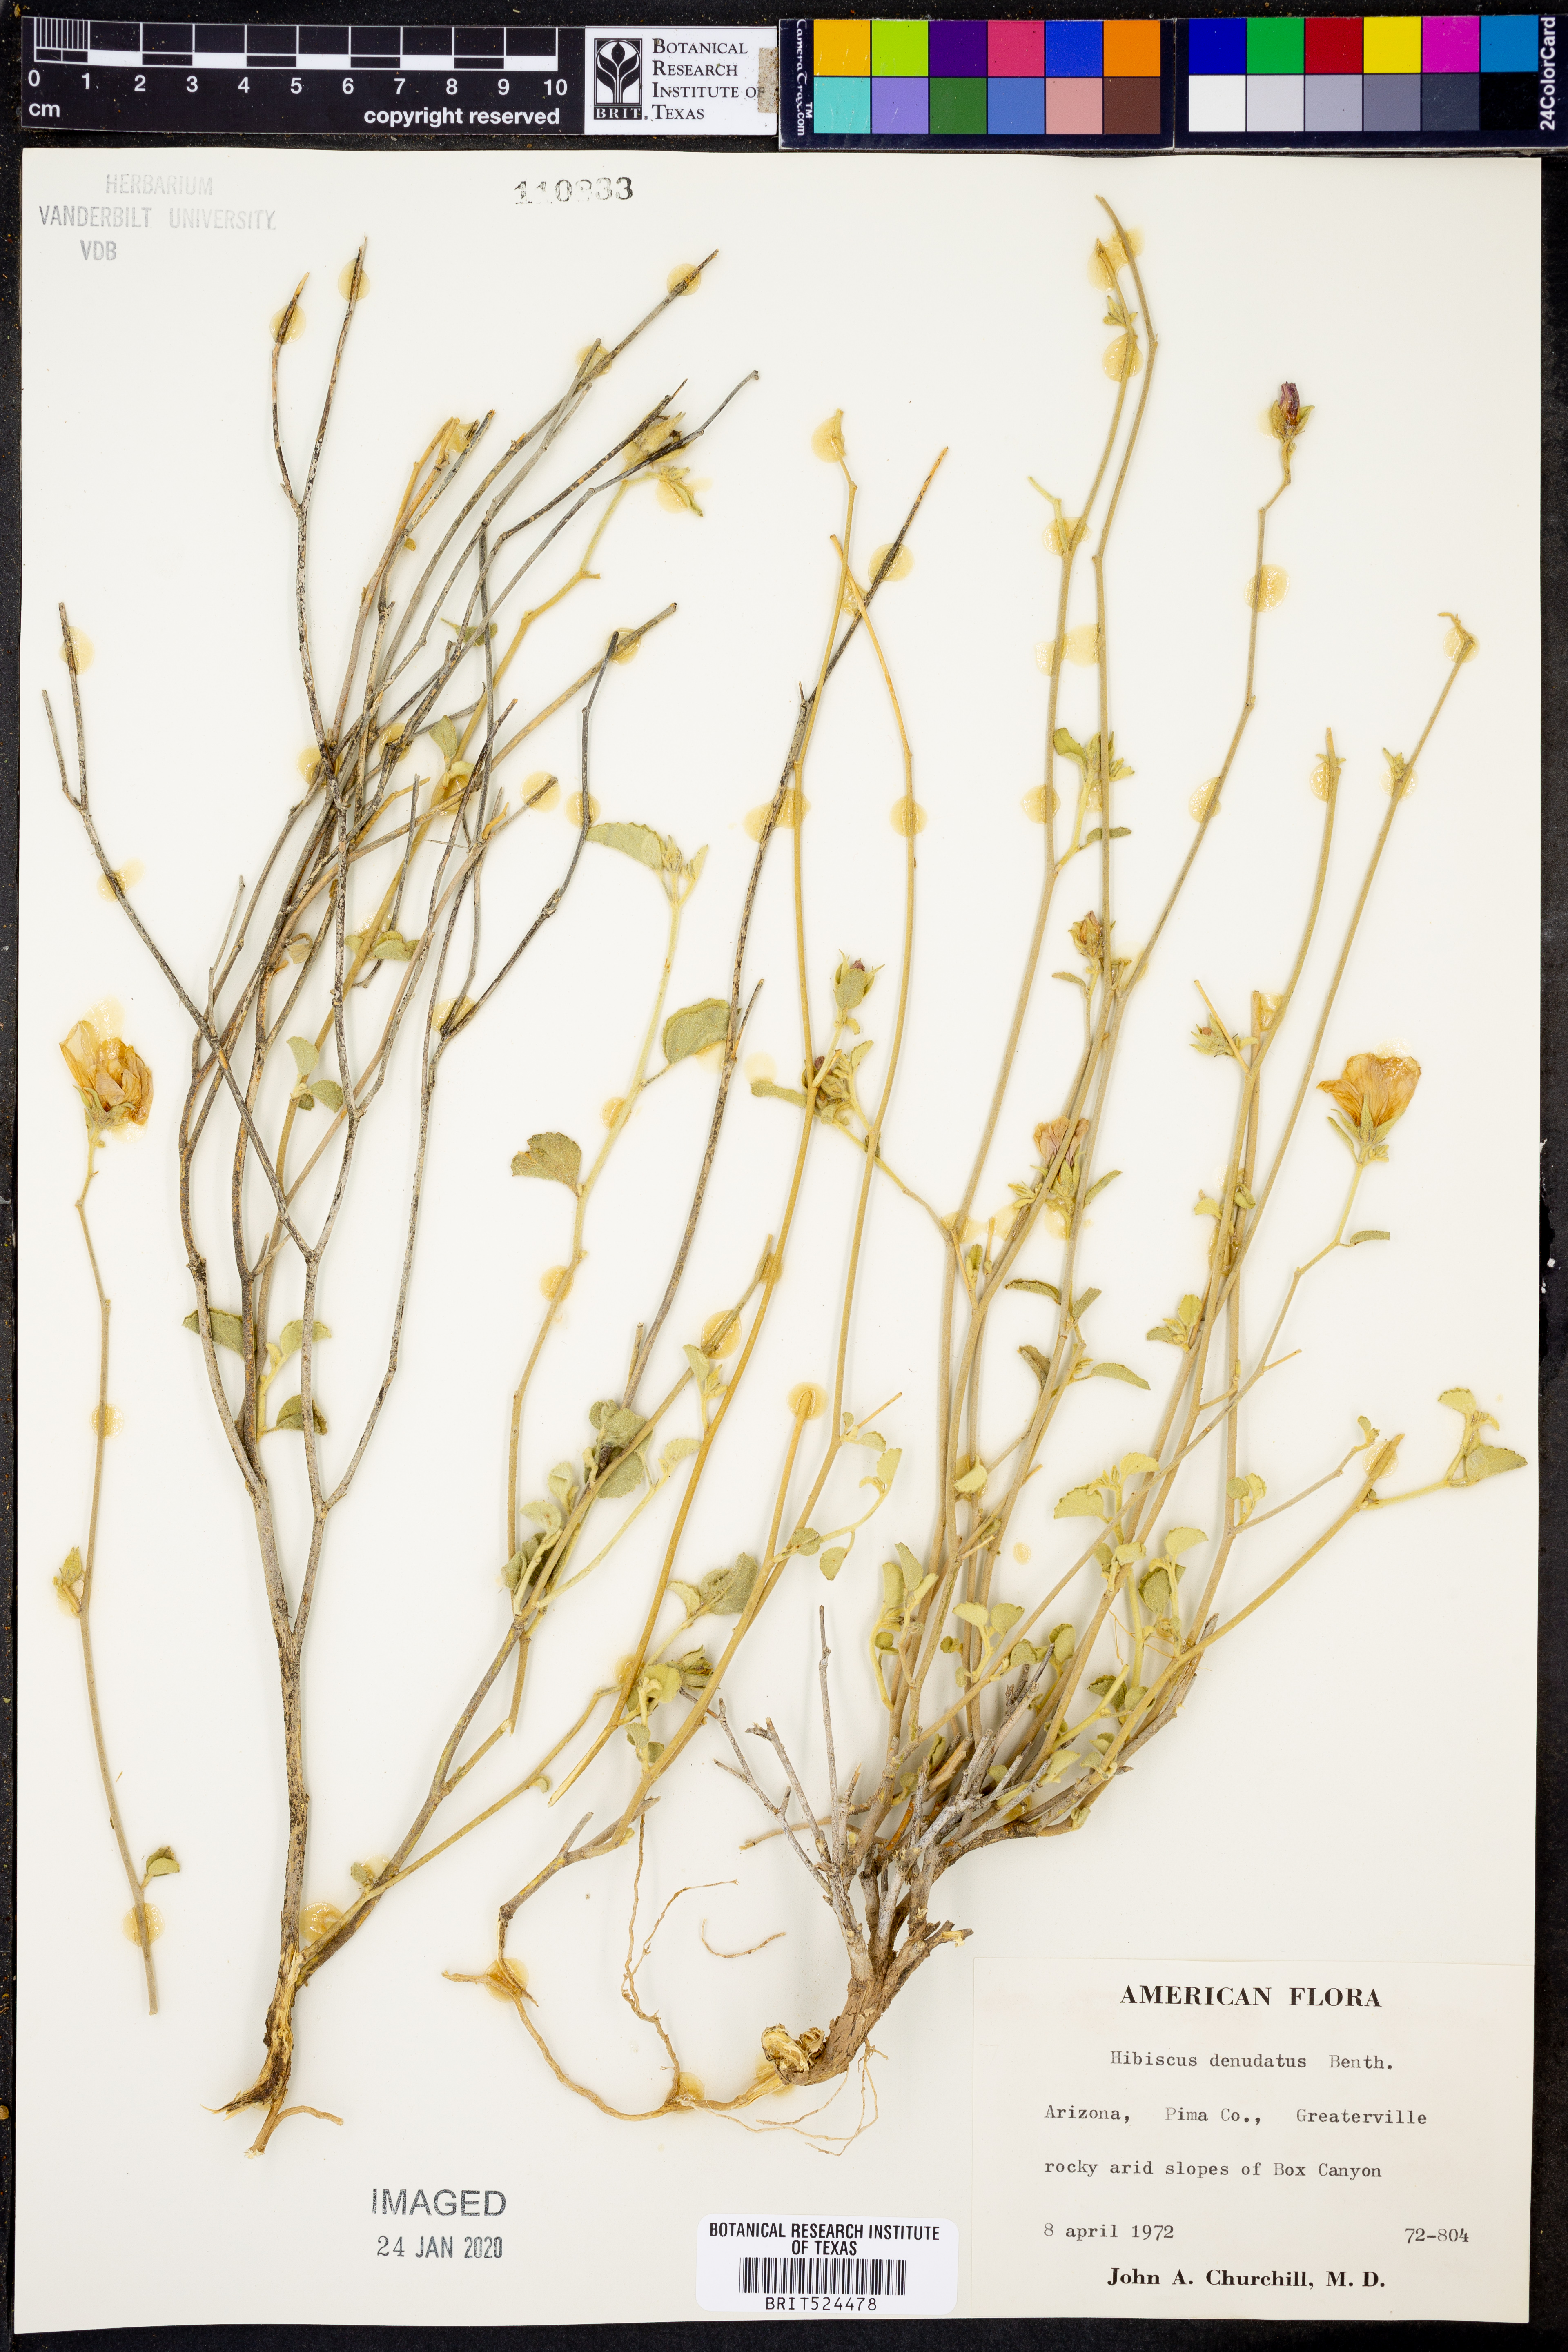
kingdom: Plantae
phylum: Tracheophyta
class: Magnoliopsida
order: Malvales
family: Malvaceae
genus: Hibiscus
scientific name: Hibiscus denudatus
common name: Paleface
